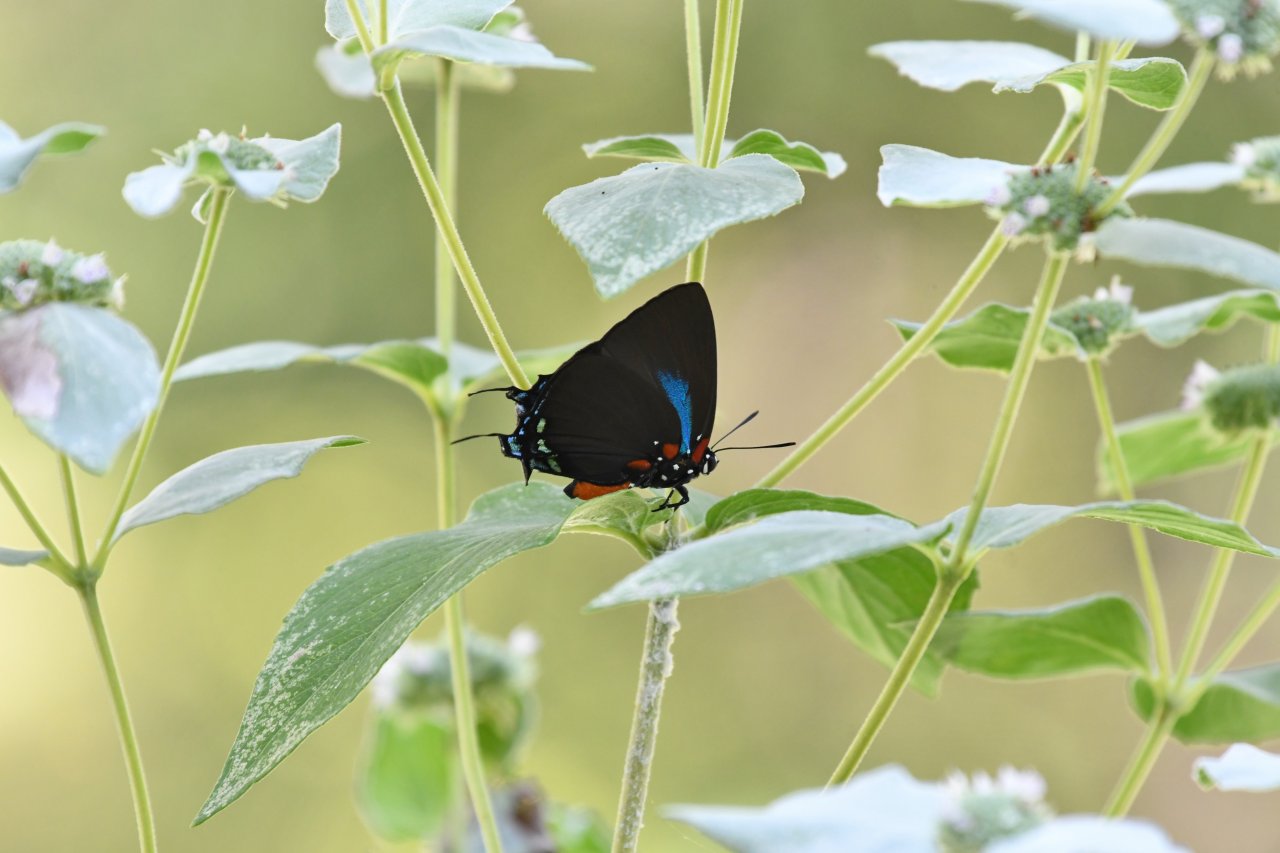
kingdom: Animalia
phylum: Arthropoda
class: Insecta
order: Lepidoptera
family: Lycaenidae
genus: Atlides
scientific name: Atlides halesus
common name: Great Purple Hairstreak
